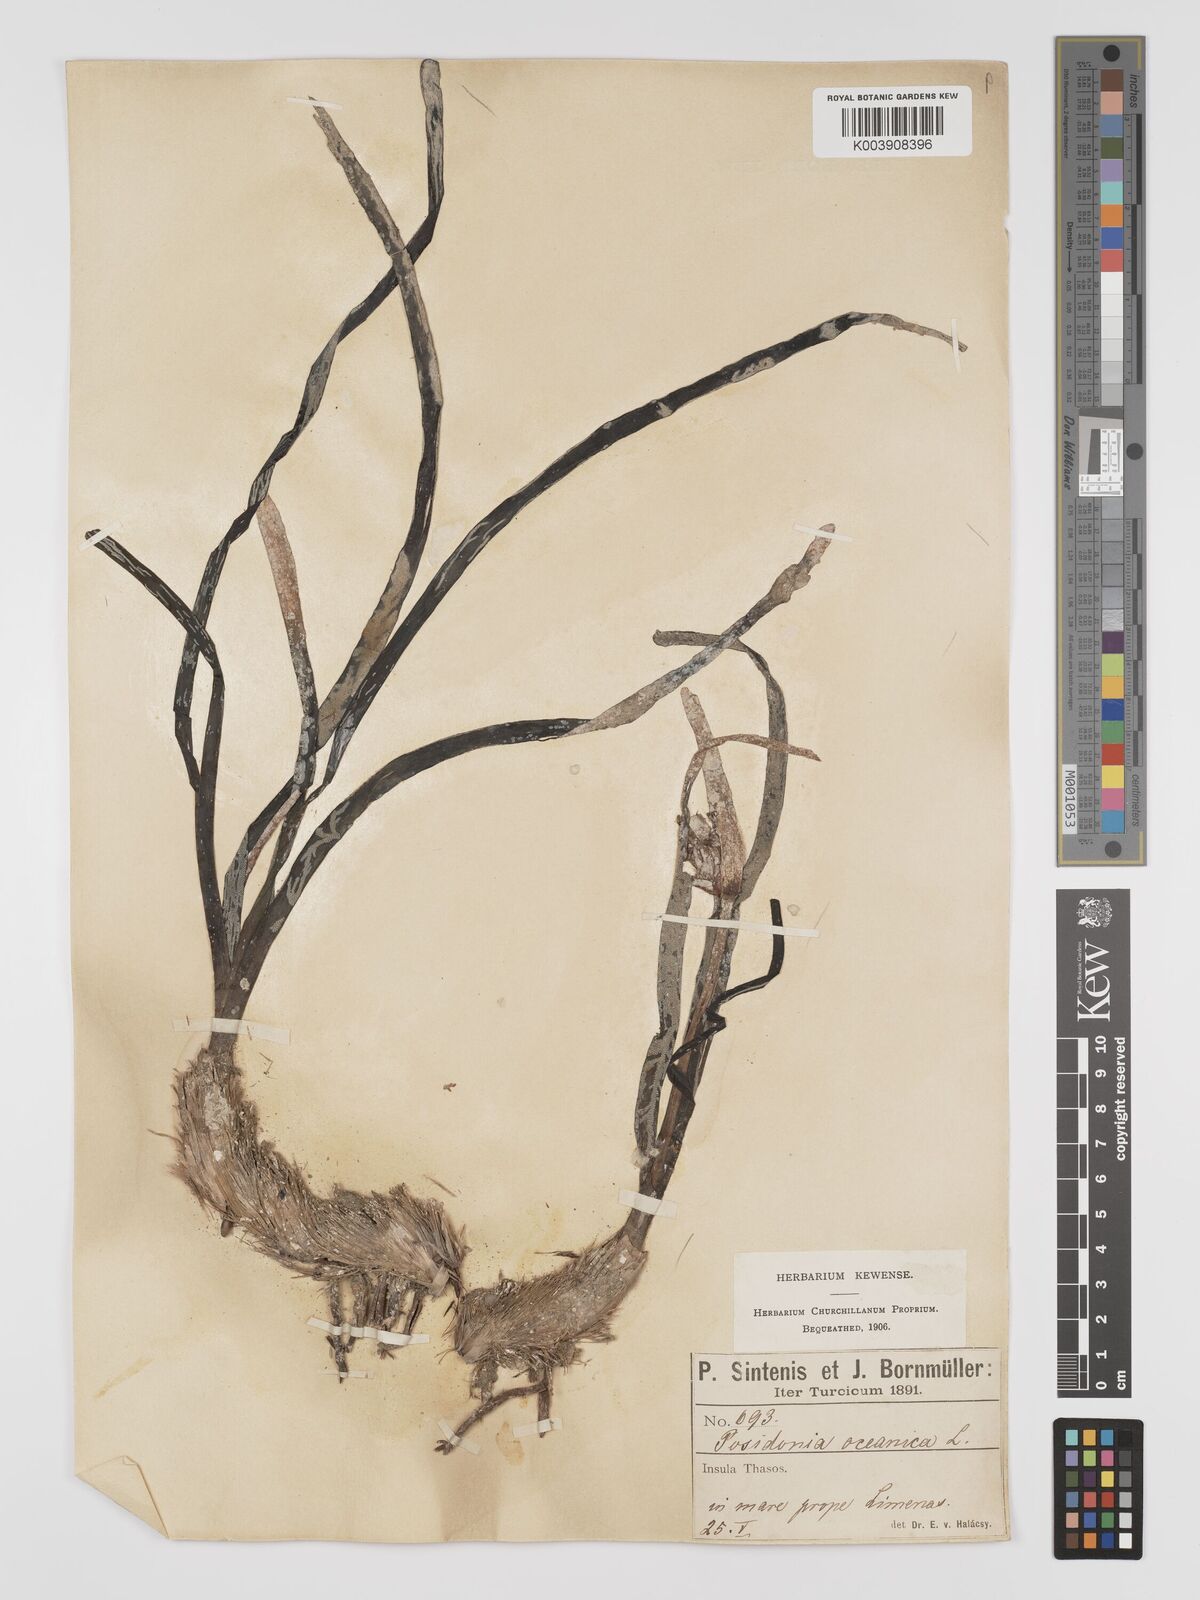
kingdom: Plantae
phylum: Tracheophyta
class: Liliopsida
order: Alismatales
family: Posidoniaceae
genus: Posidonia
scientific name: Posidonia
